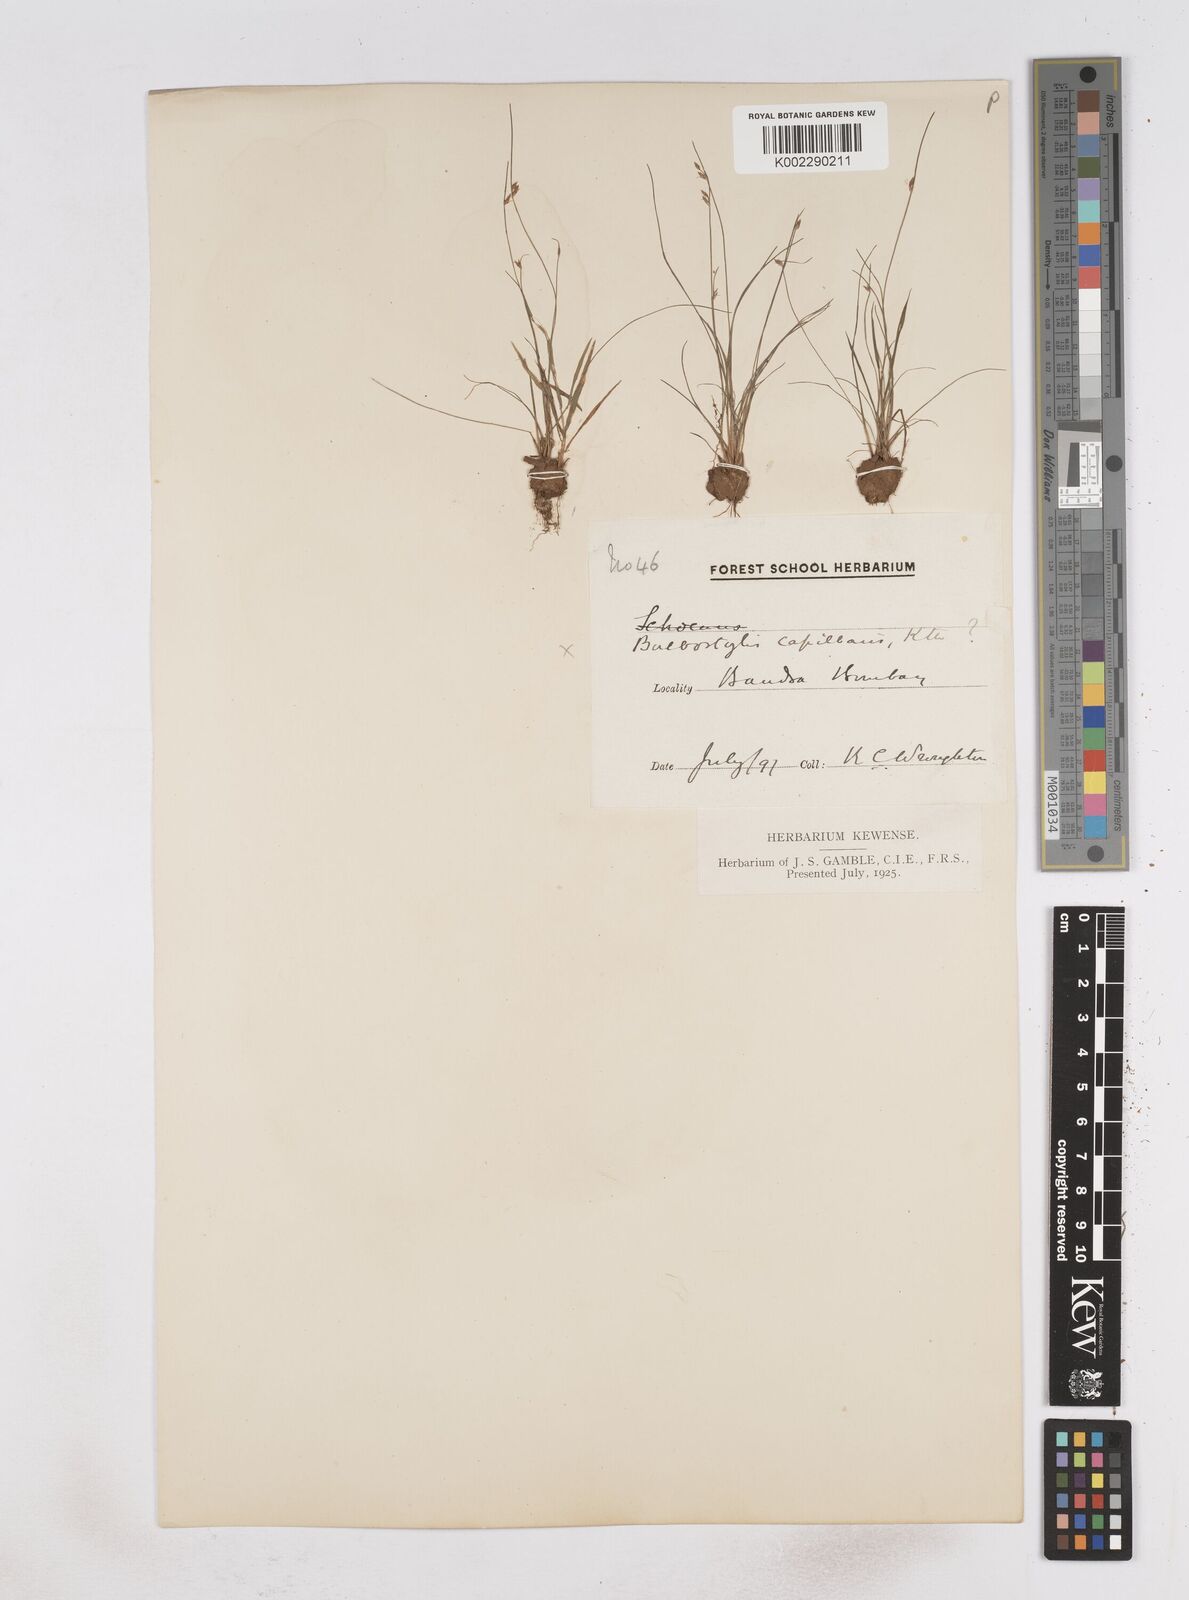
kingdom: Plantae
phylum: Tracheophyta
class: Liliopsida
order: Poales
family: Cyperaceae
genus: Fimbristylis
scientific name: Fimbristylis
